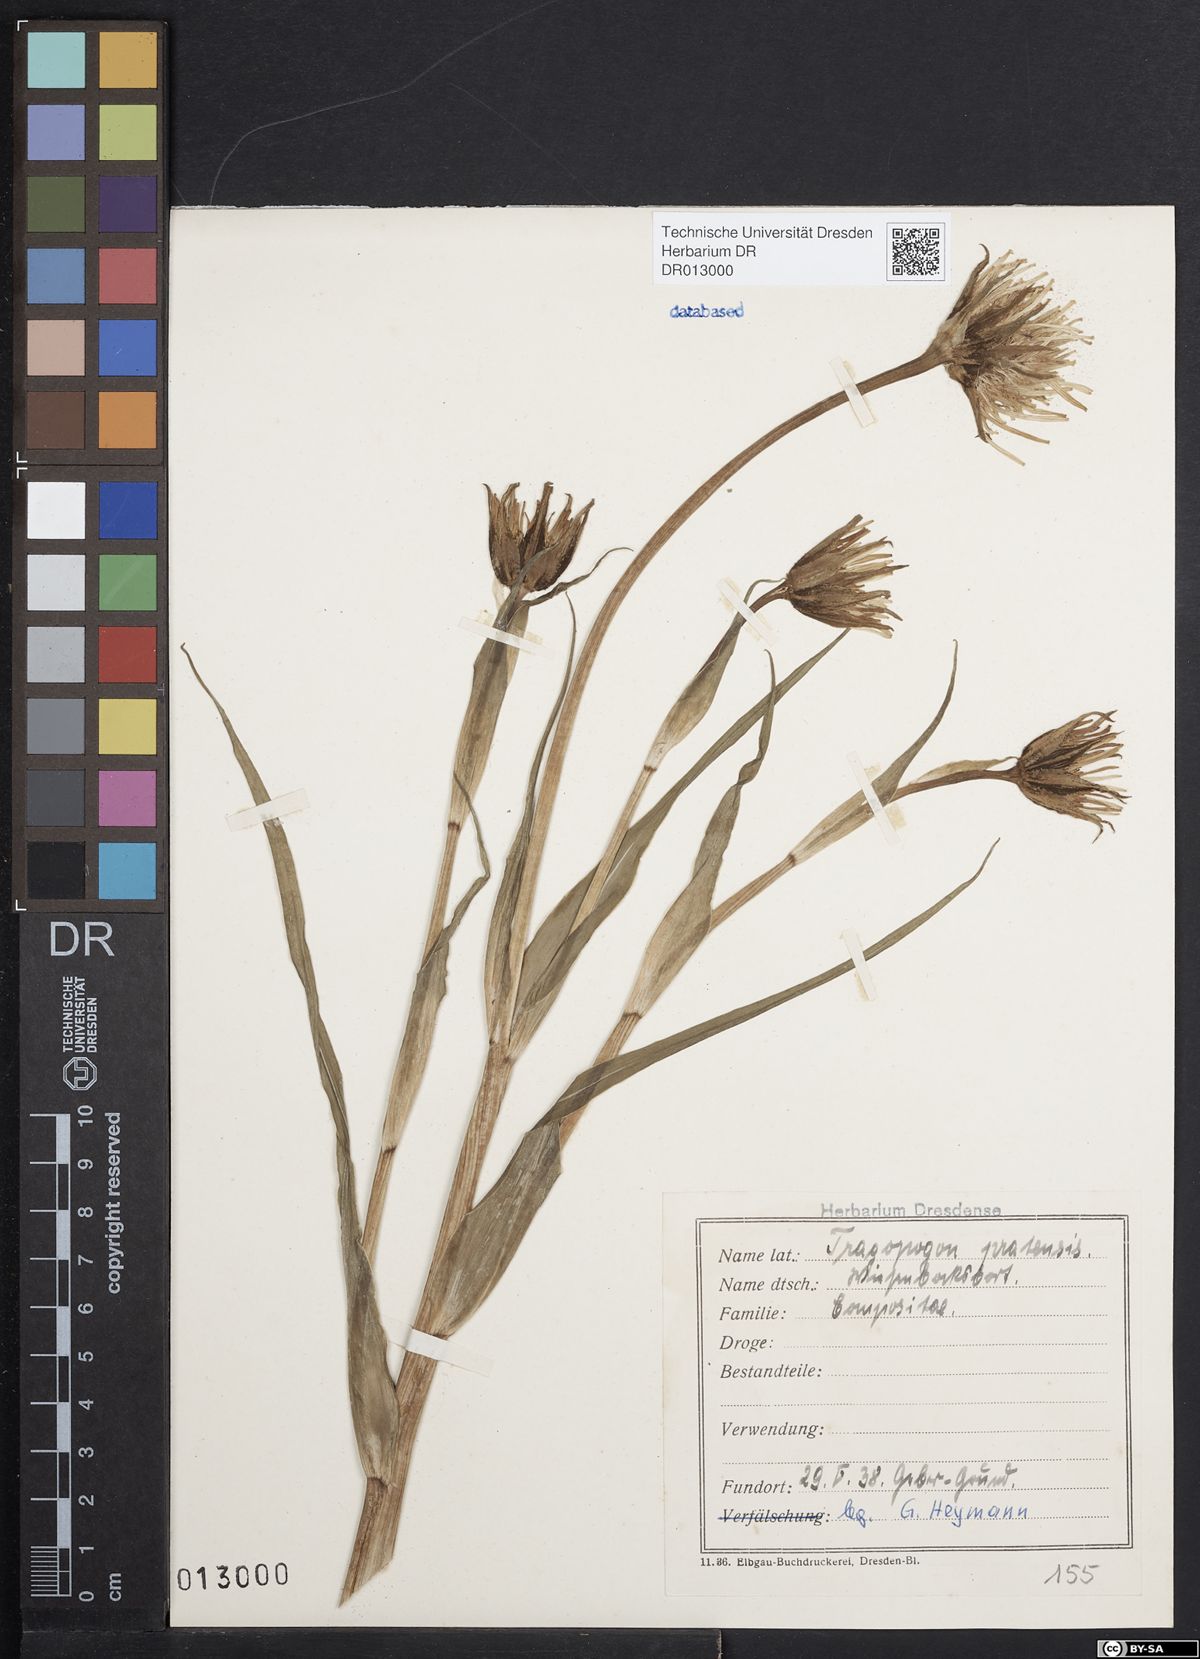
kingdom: Plantae
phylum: Tracheophyta
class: Magnoliopsida
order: Asterales
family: Asteraceae
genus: Tragopogon
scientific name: Tragopogon pratensis
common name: Goat's-beard
